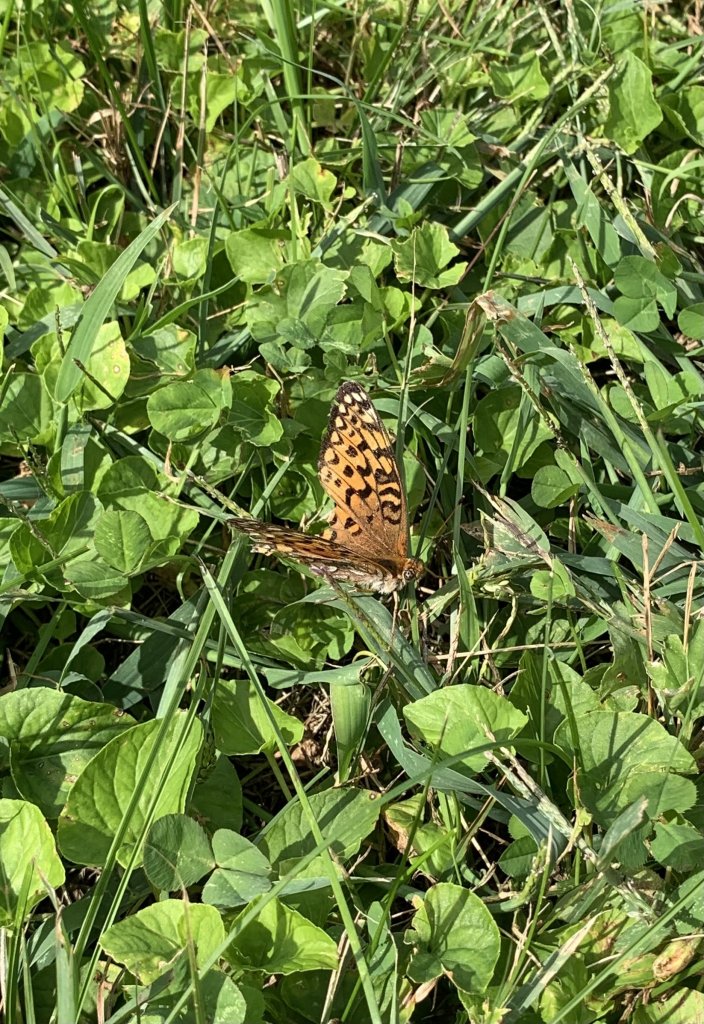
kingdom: Animalia
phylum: Arthropoda
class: Insecta
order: Lepidoptera
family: Nymphalidae
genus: Speyeria
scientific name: Speyeria atlantis
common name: Atlantis Fritillary
